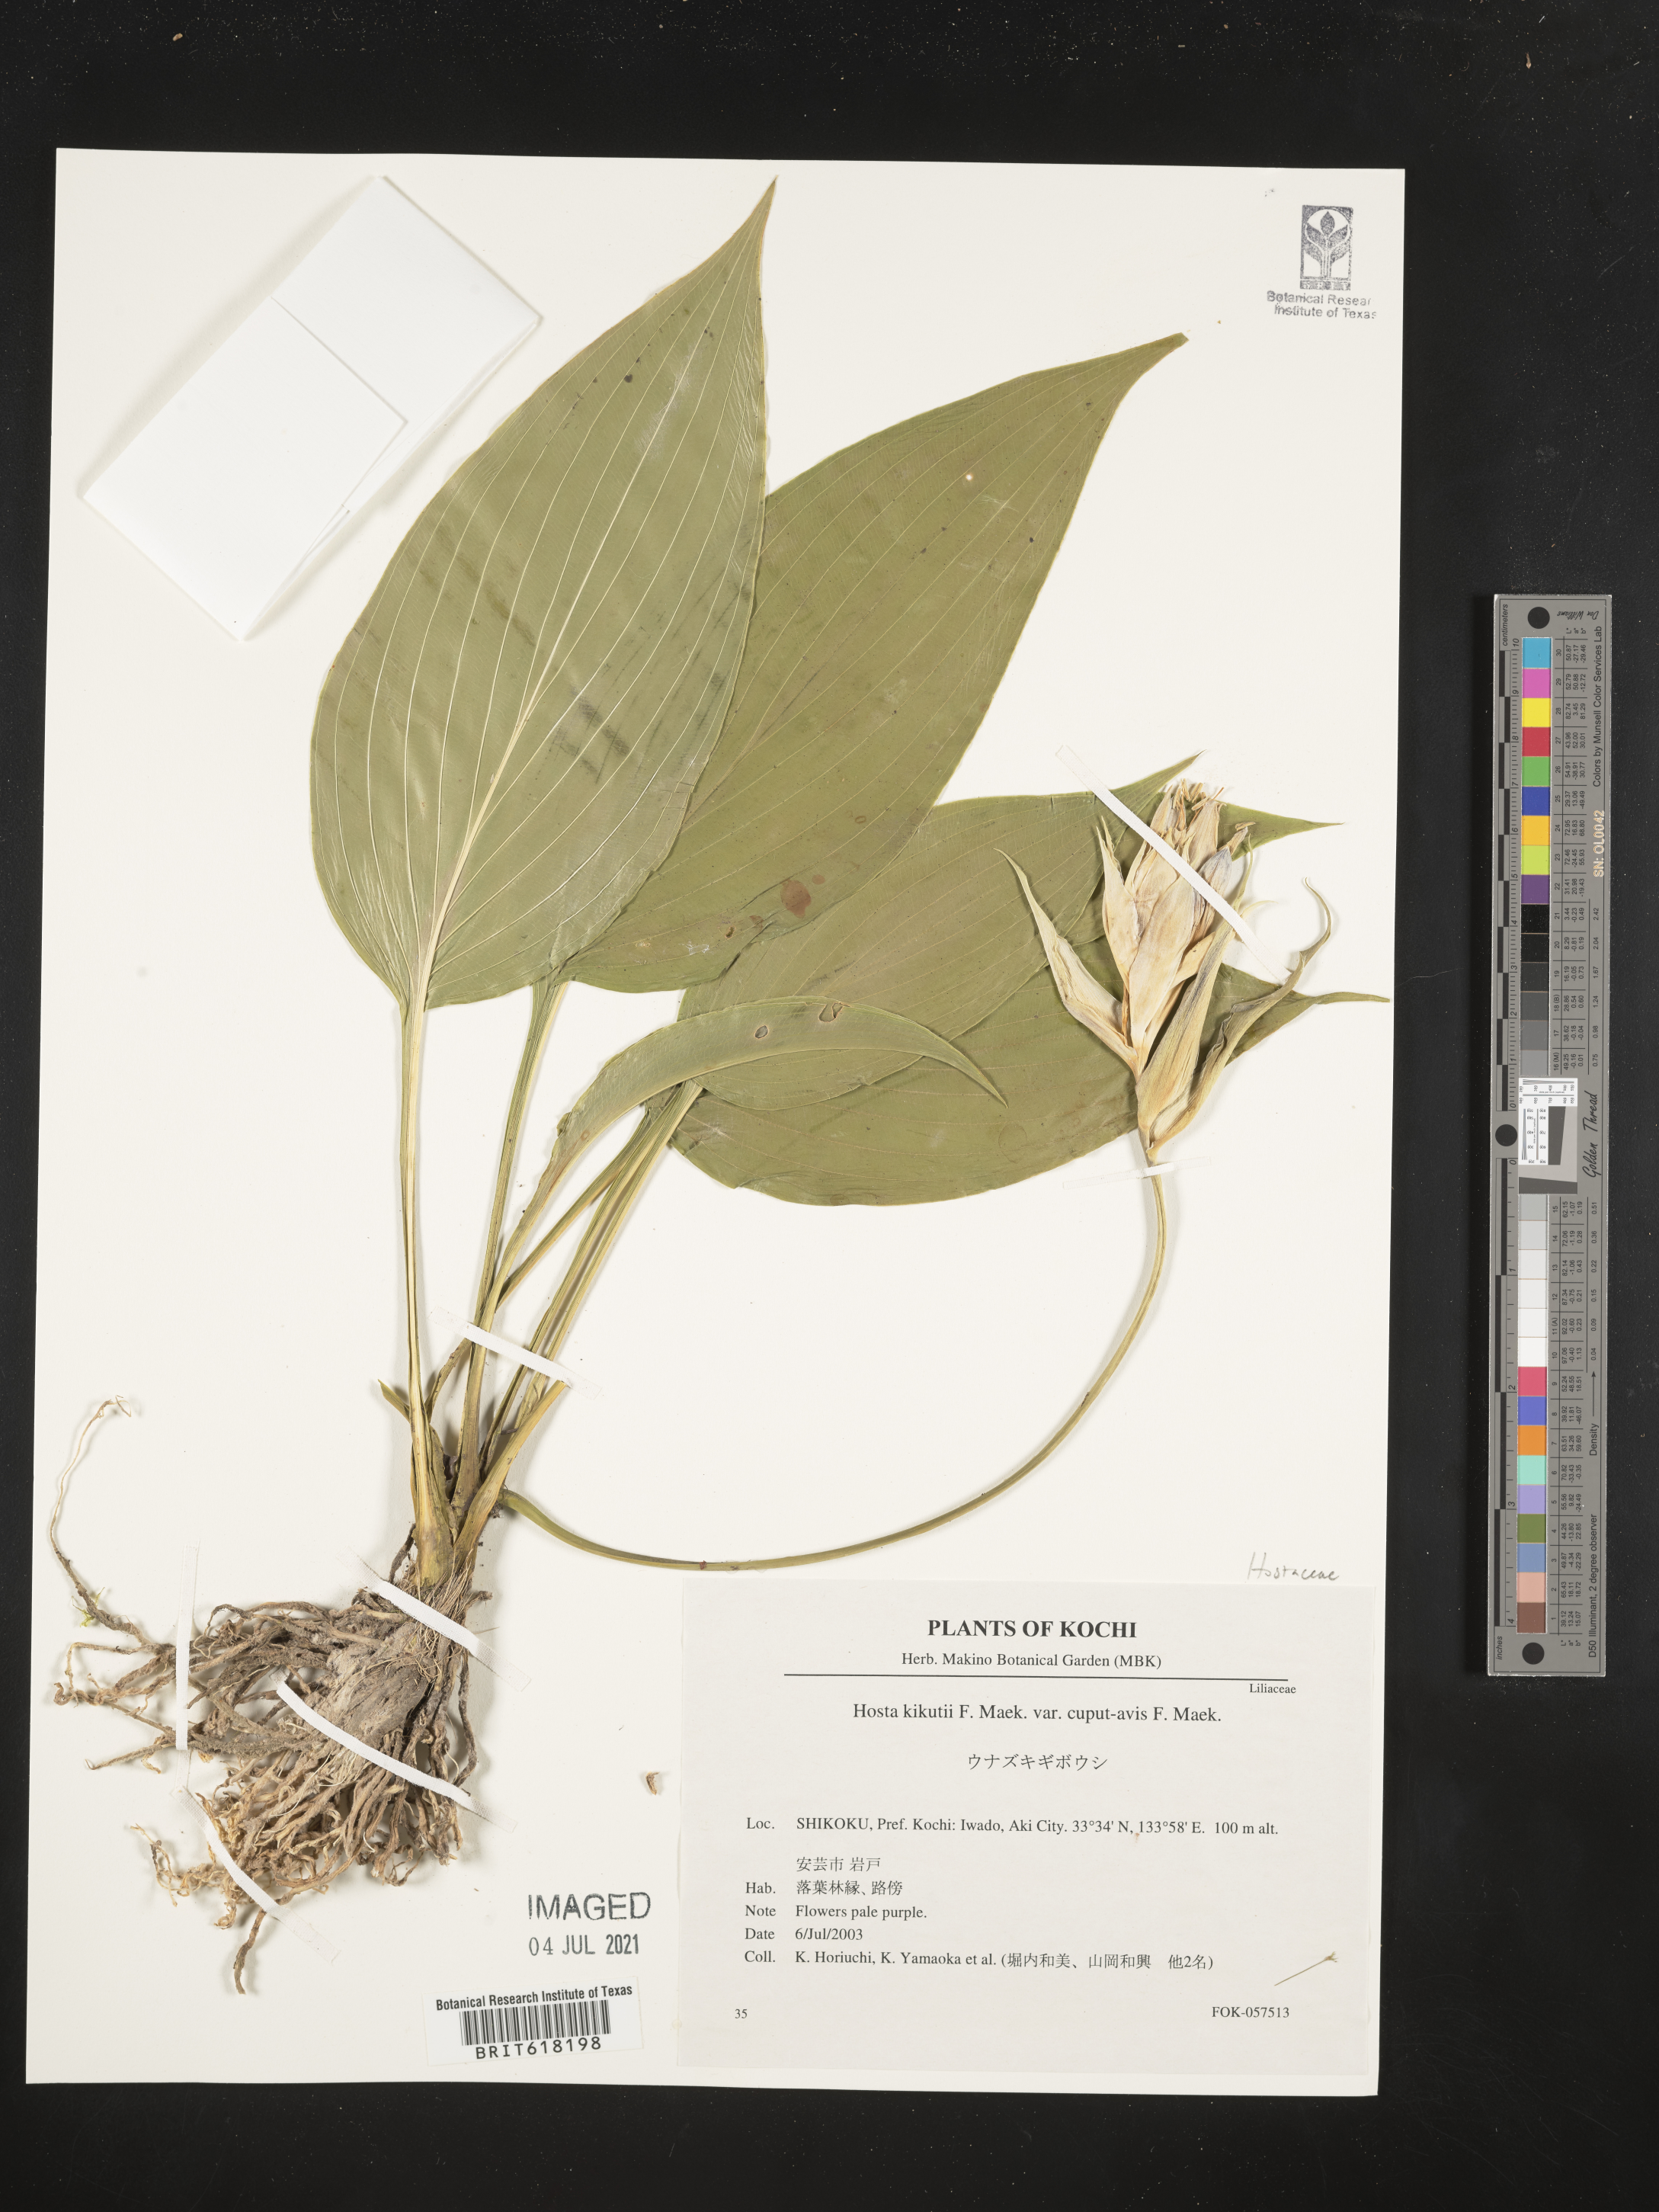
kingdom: Plantae
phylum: Tracheophyta
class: Liliopsida
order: Asparagales
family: Asparagaceae
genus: Hosta
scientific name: Hosta kikutii
